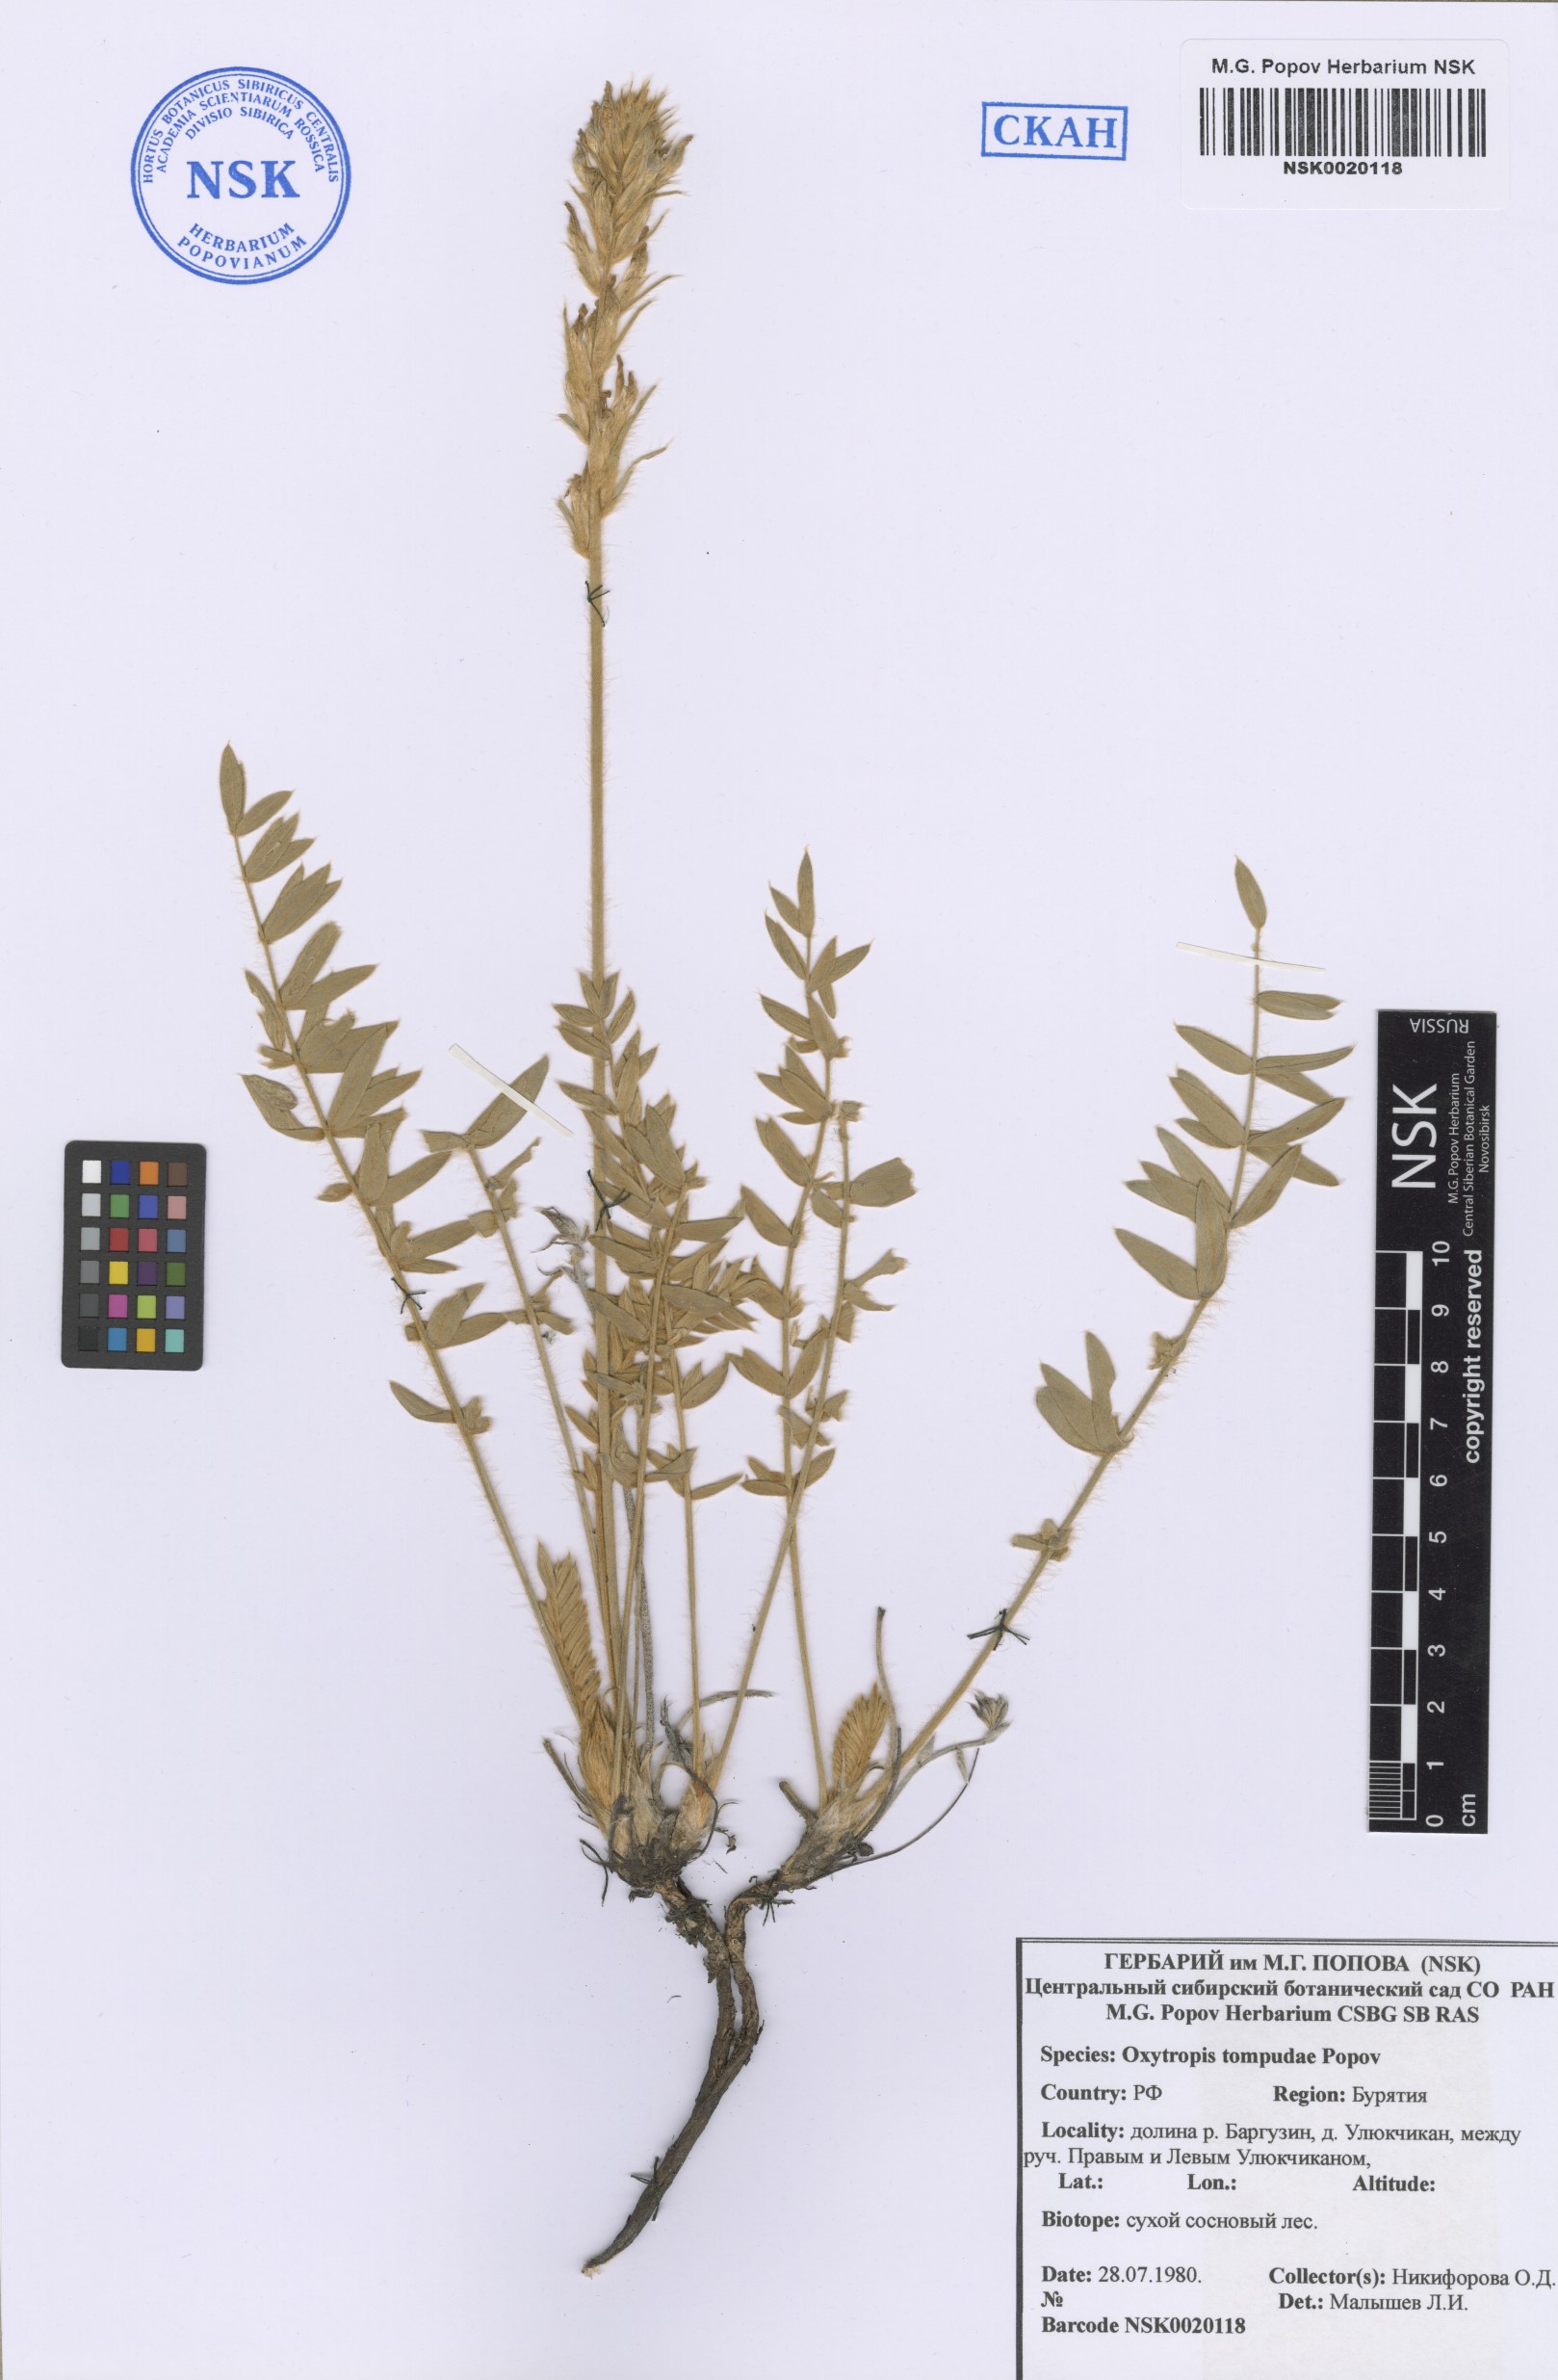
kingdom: Plantae
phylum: Tracheophyta
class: Magnoliopsida
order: Fabales
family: Fabaceae
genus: Oxytropis
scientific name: Oxytropis tompudae
